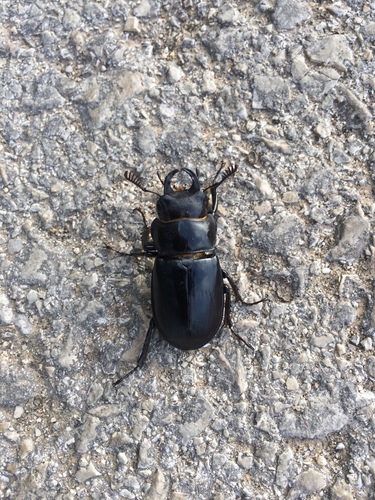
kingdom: Animalia
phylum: Arthropoda
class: Insecta
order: Coleoptera
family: Lucanidae
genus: Lucanus
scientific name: Lucanus barbarossa
